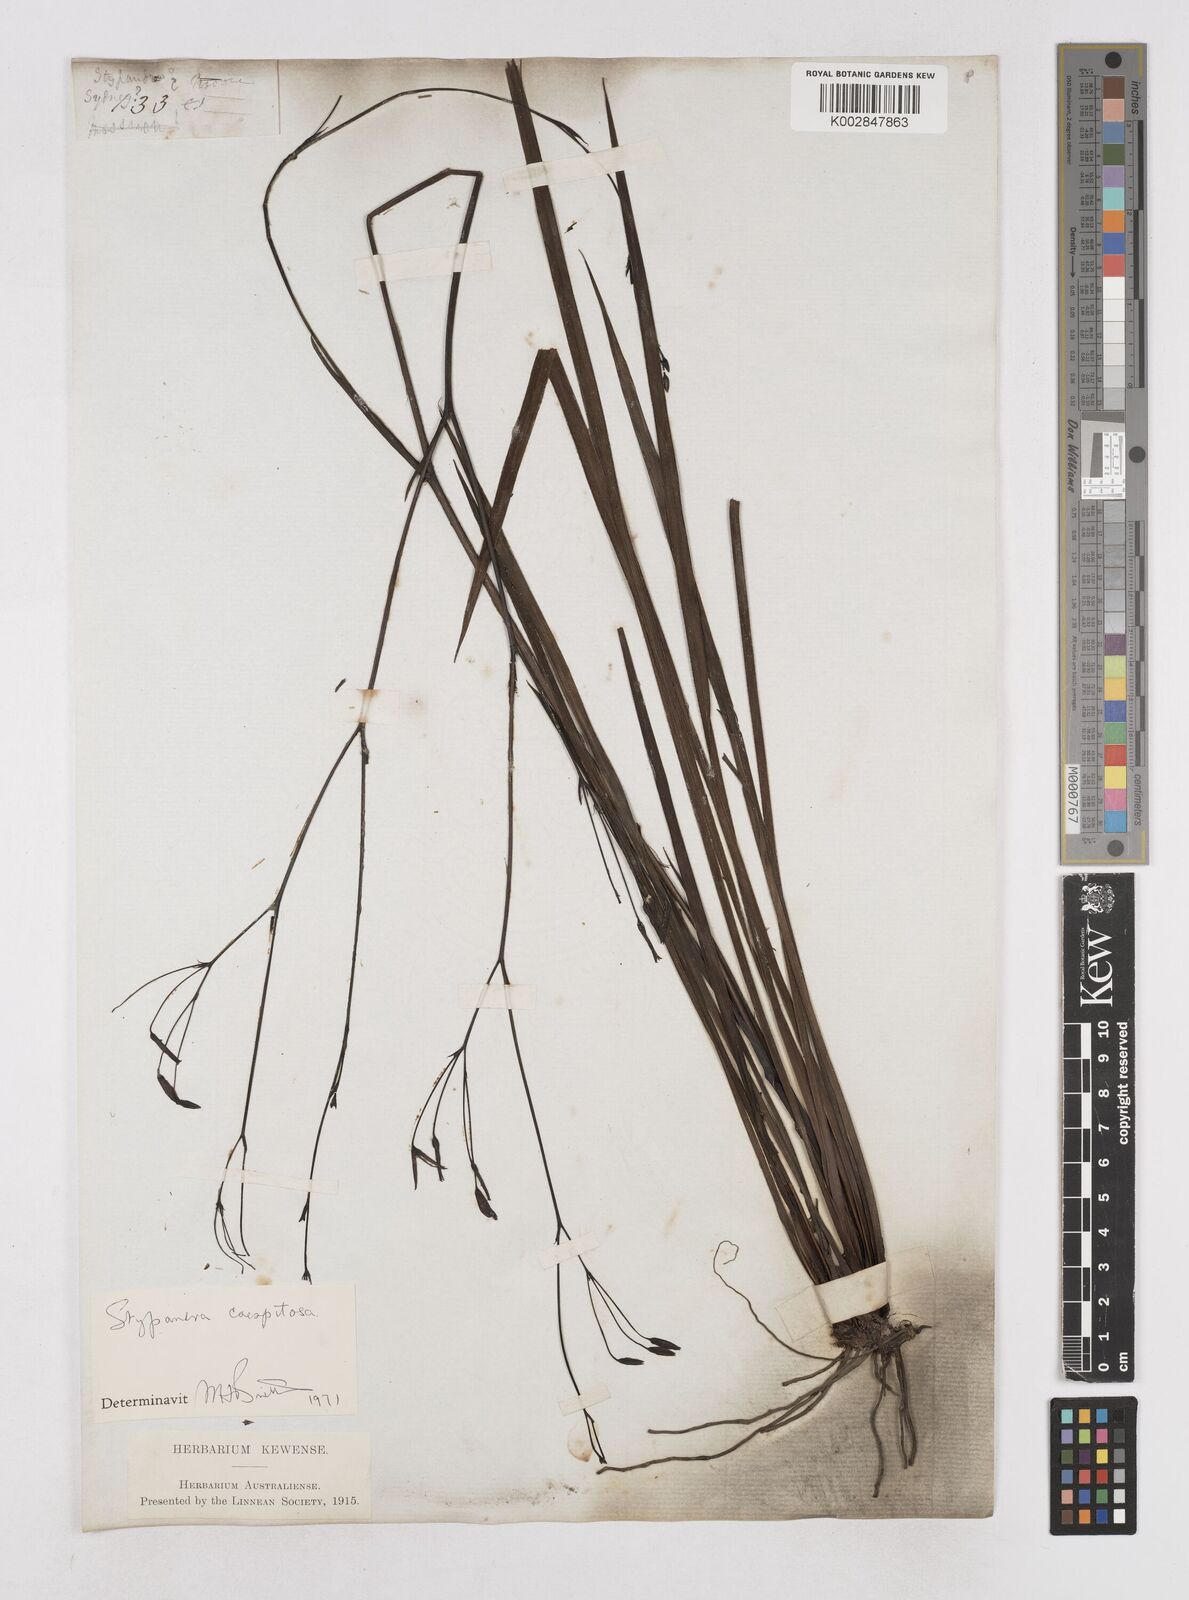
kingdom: Plantae
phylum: Tracheophyta
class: Liliopsida
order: Asparagales
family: Asphodelaceae
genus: Thelionema
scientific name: Thelionema caespitosum
